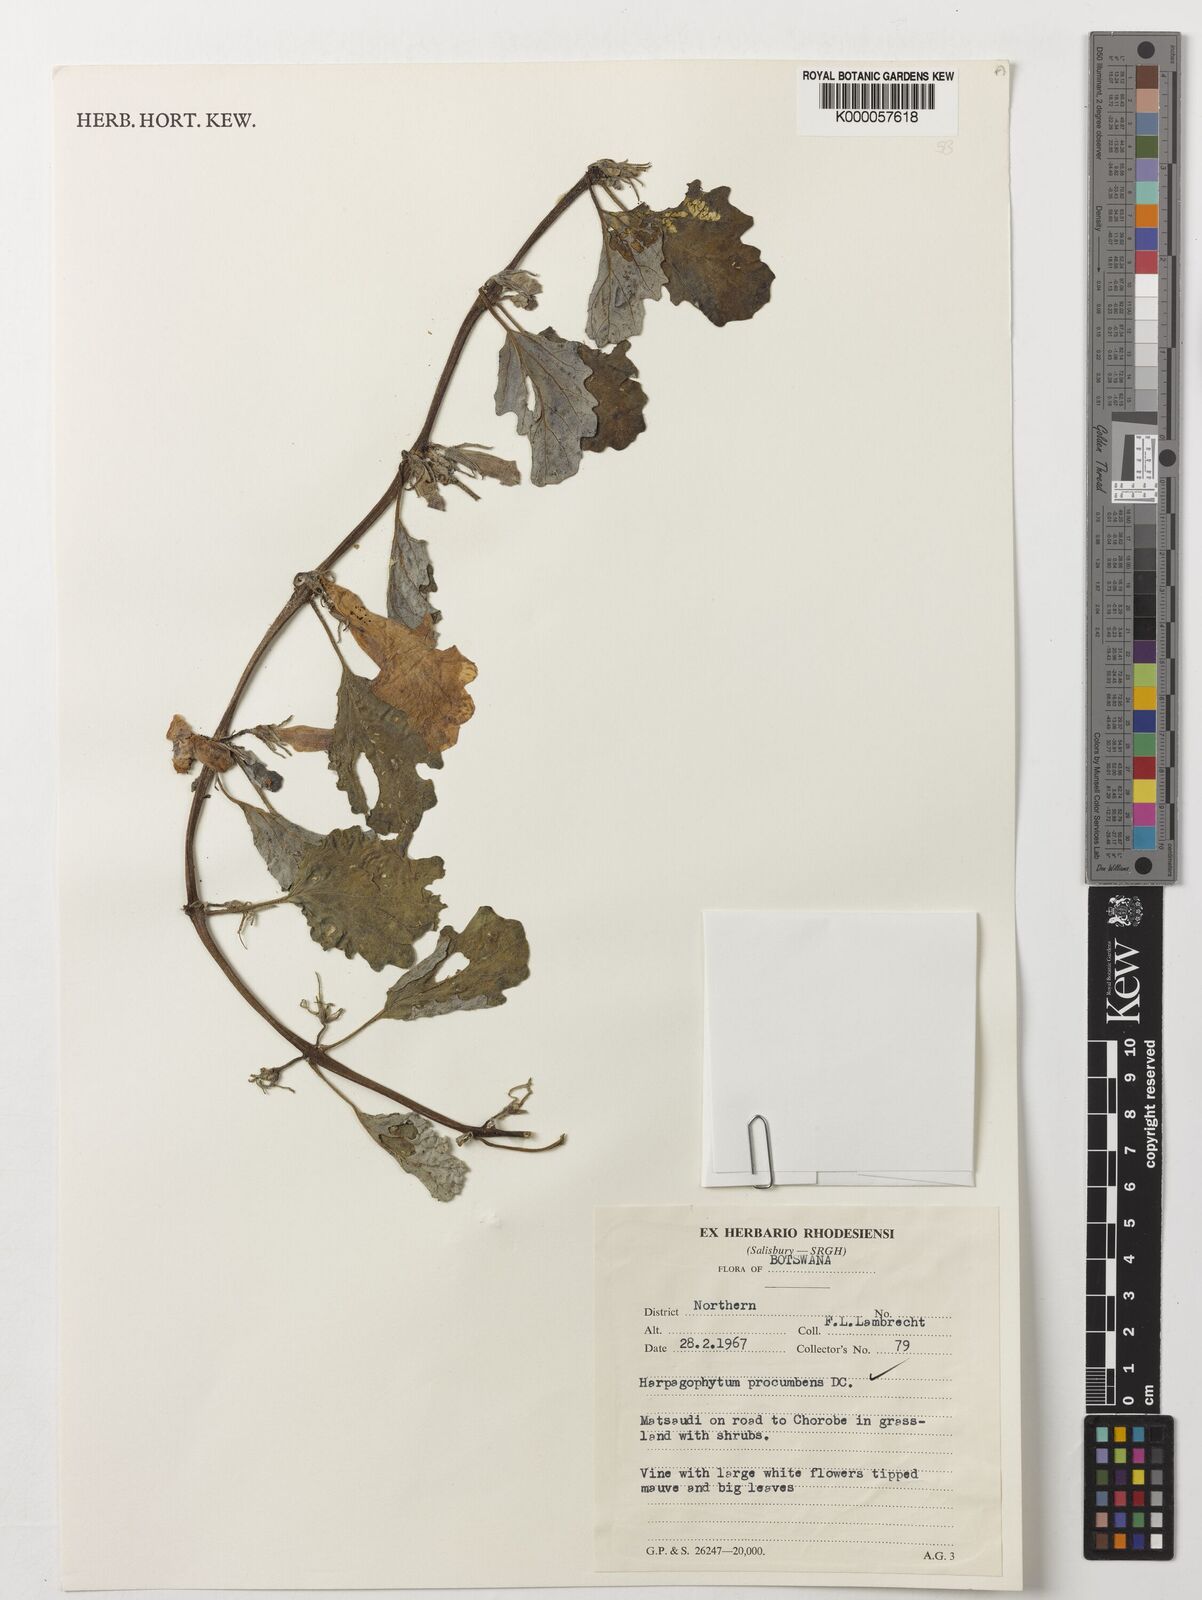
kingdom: Plantae
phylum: Tracheophyta
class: Magnoliopsida
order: Lamiales
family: Pedaliaceae
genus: Harpagophytum
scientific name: Harpagophytum procumbens
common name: Grappleplant
